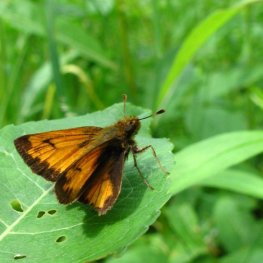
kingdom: Animalia
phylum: Arthropoda
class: Insecta
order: Lepidoptera
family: Hesperiidae
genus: Lon
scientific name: Lon hobomok
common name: Hobomok Skipper
